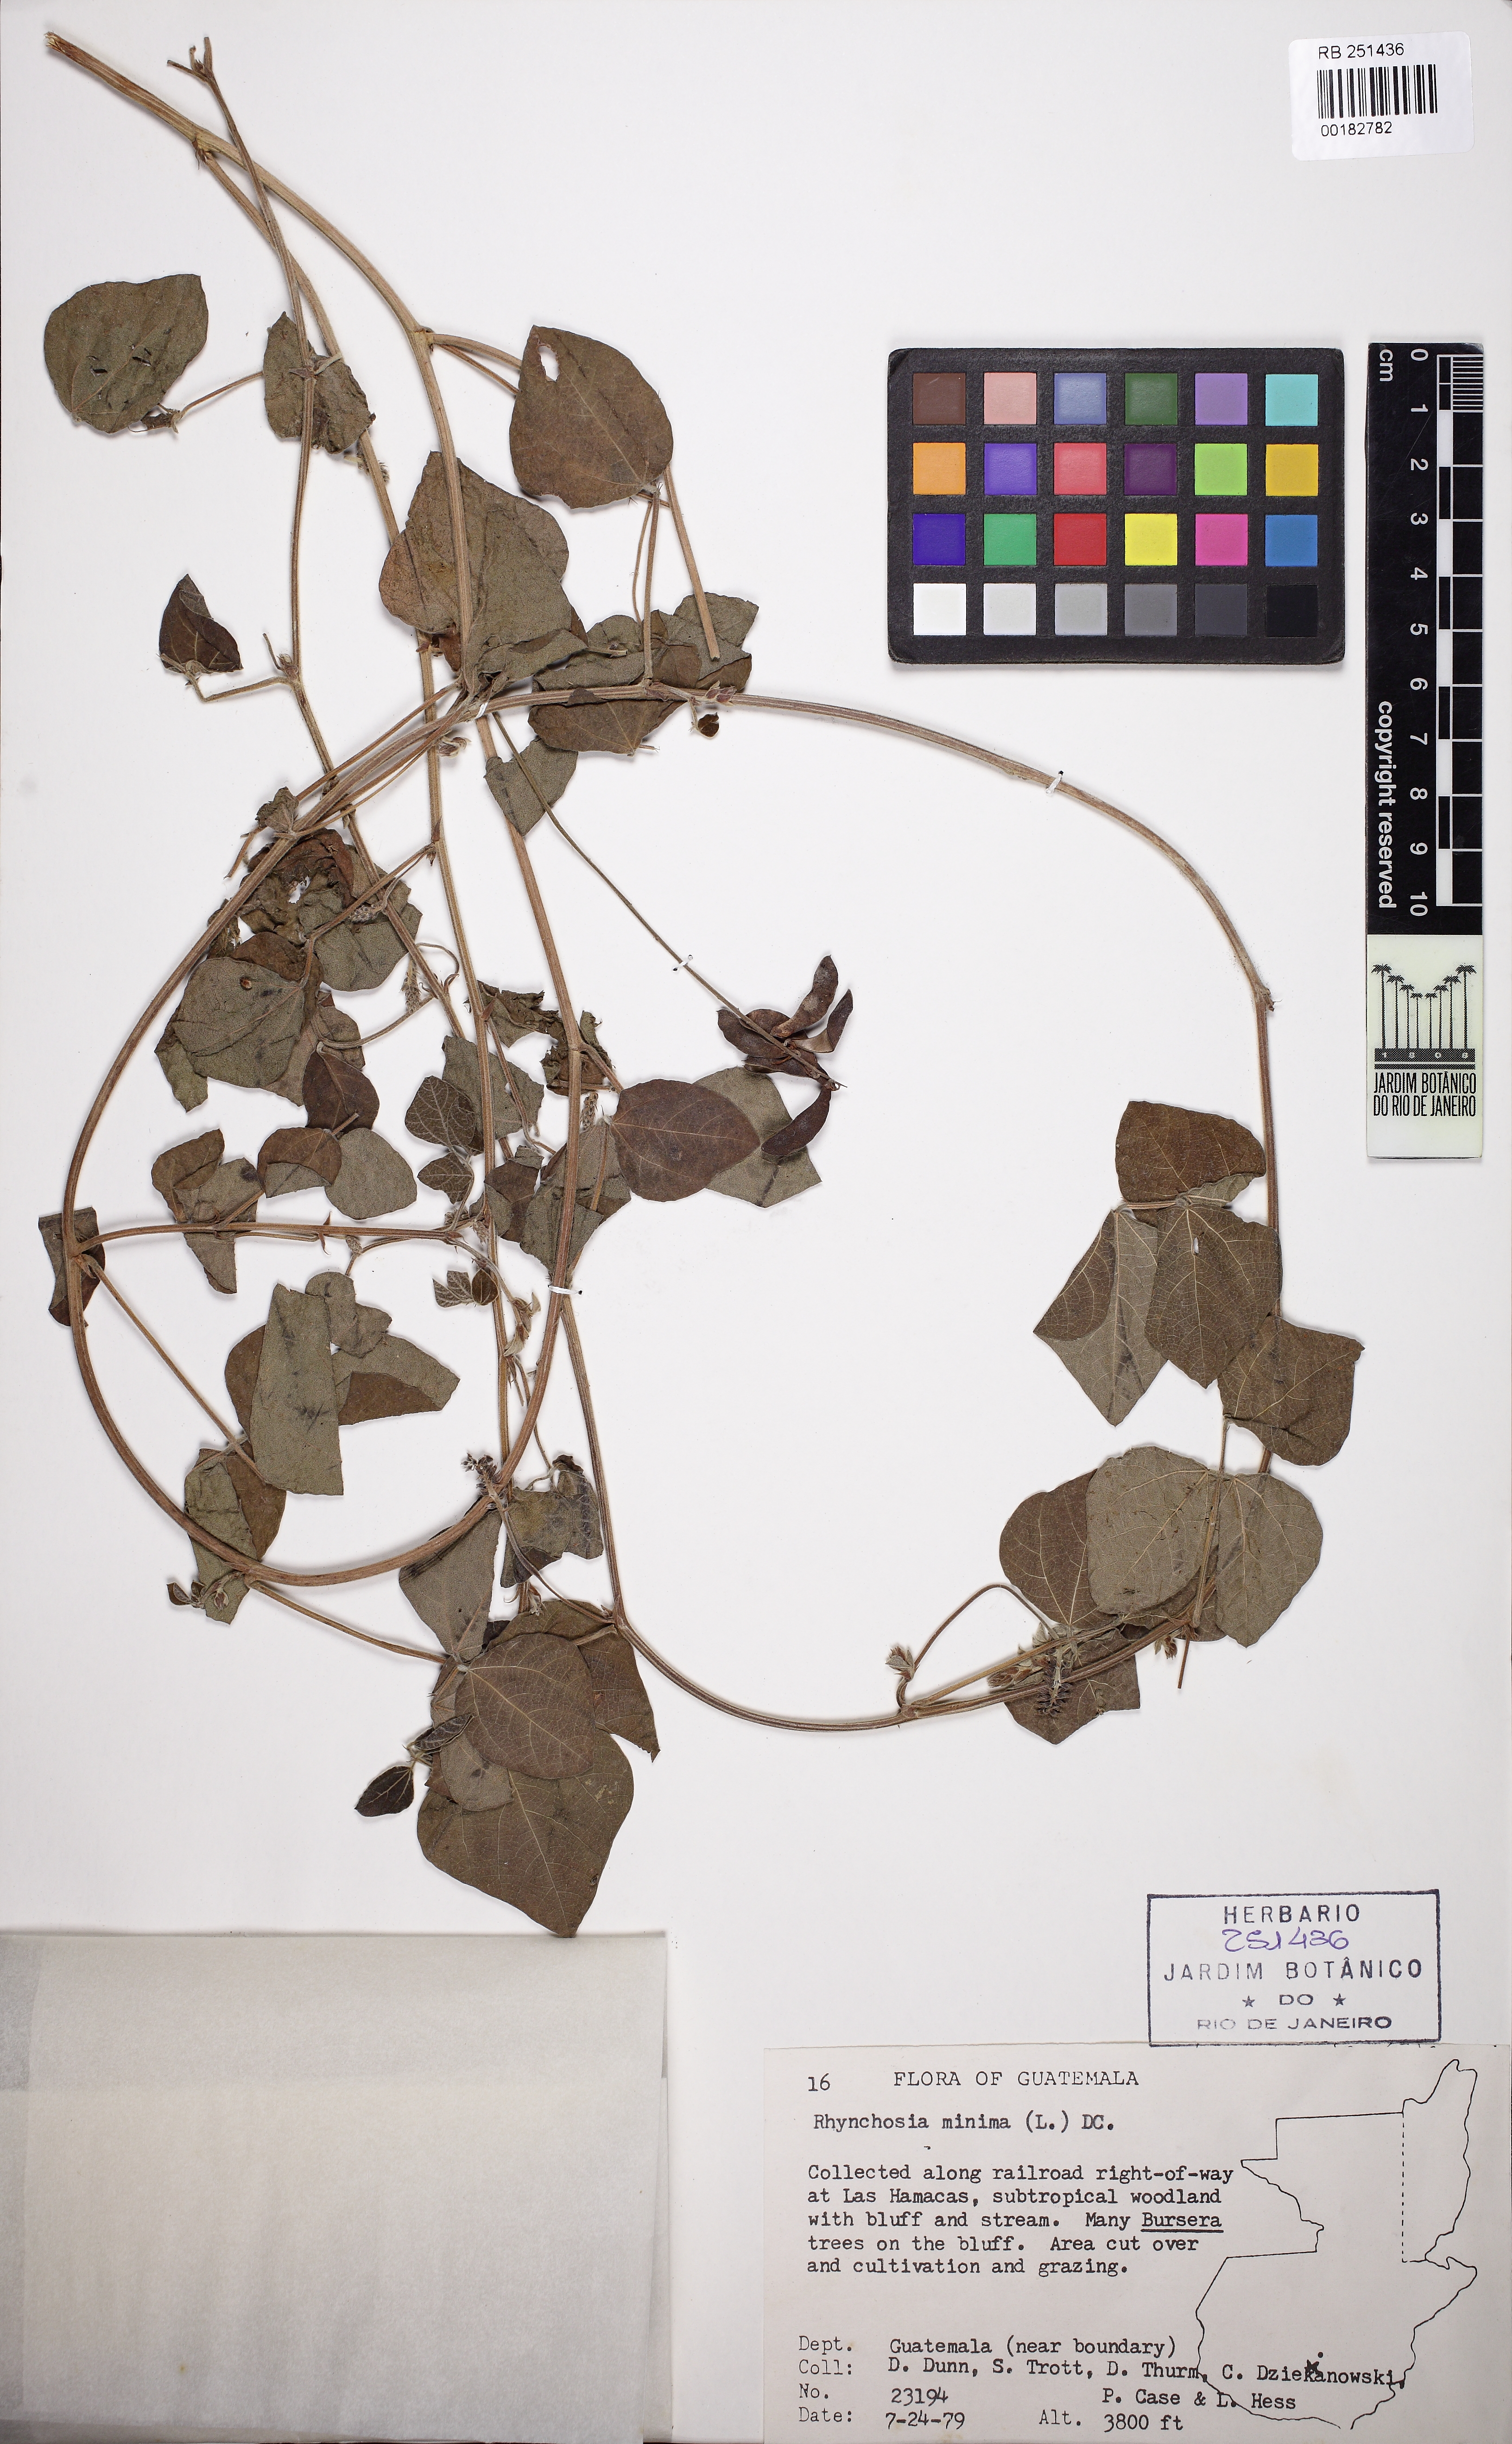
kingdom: Plantae
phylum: Tracheophyta
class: Magnoliopsida
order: Fabales
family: Fabaceae
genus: Rhynchosia
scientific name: Rhynchosia minima
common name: Least snoutbean
